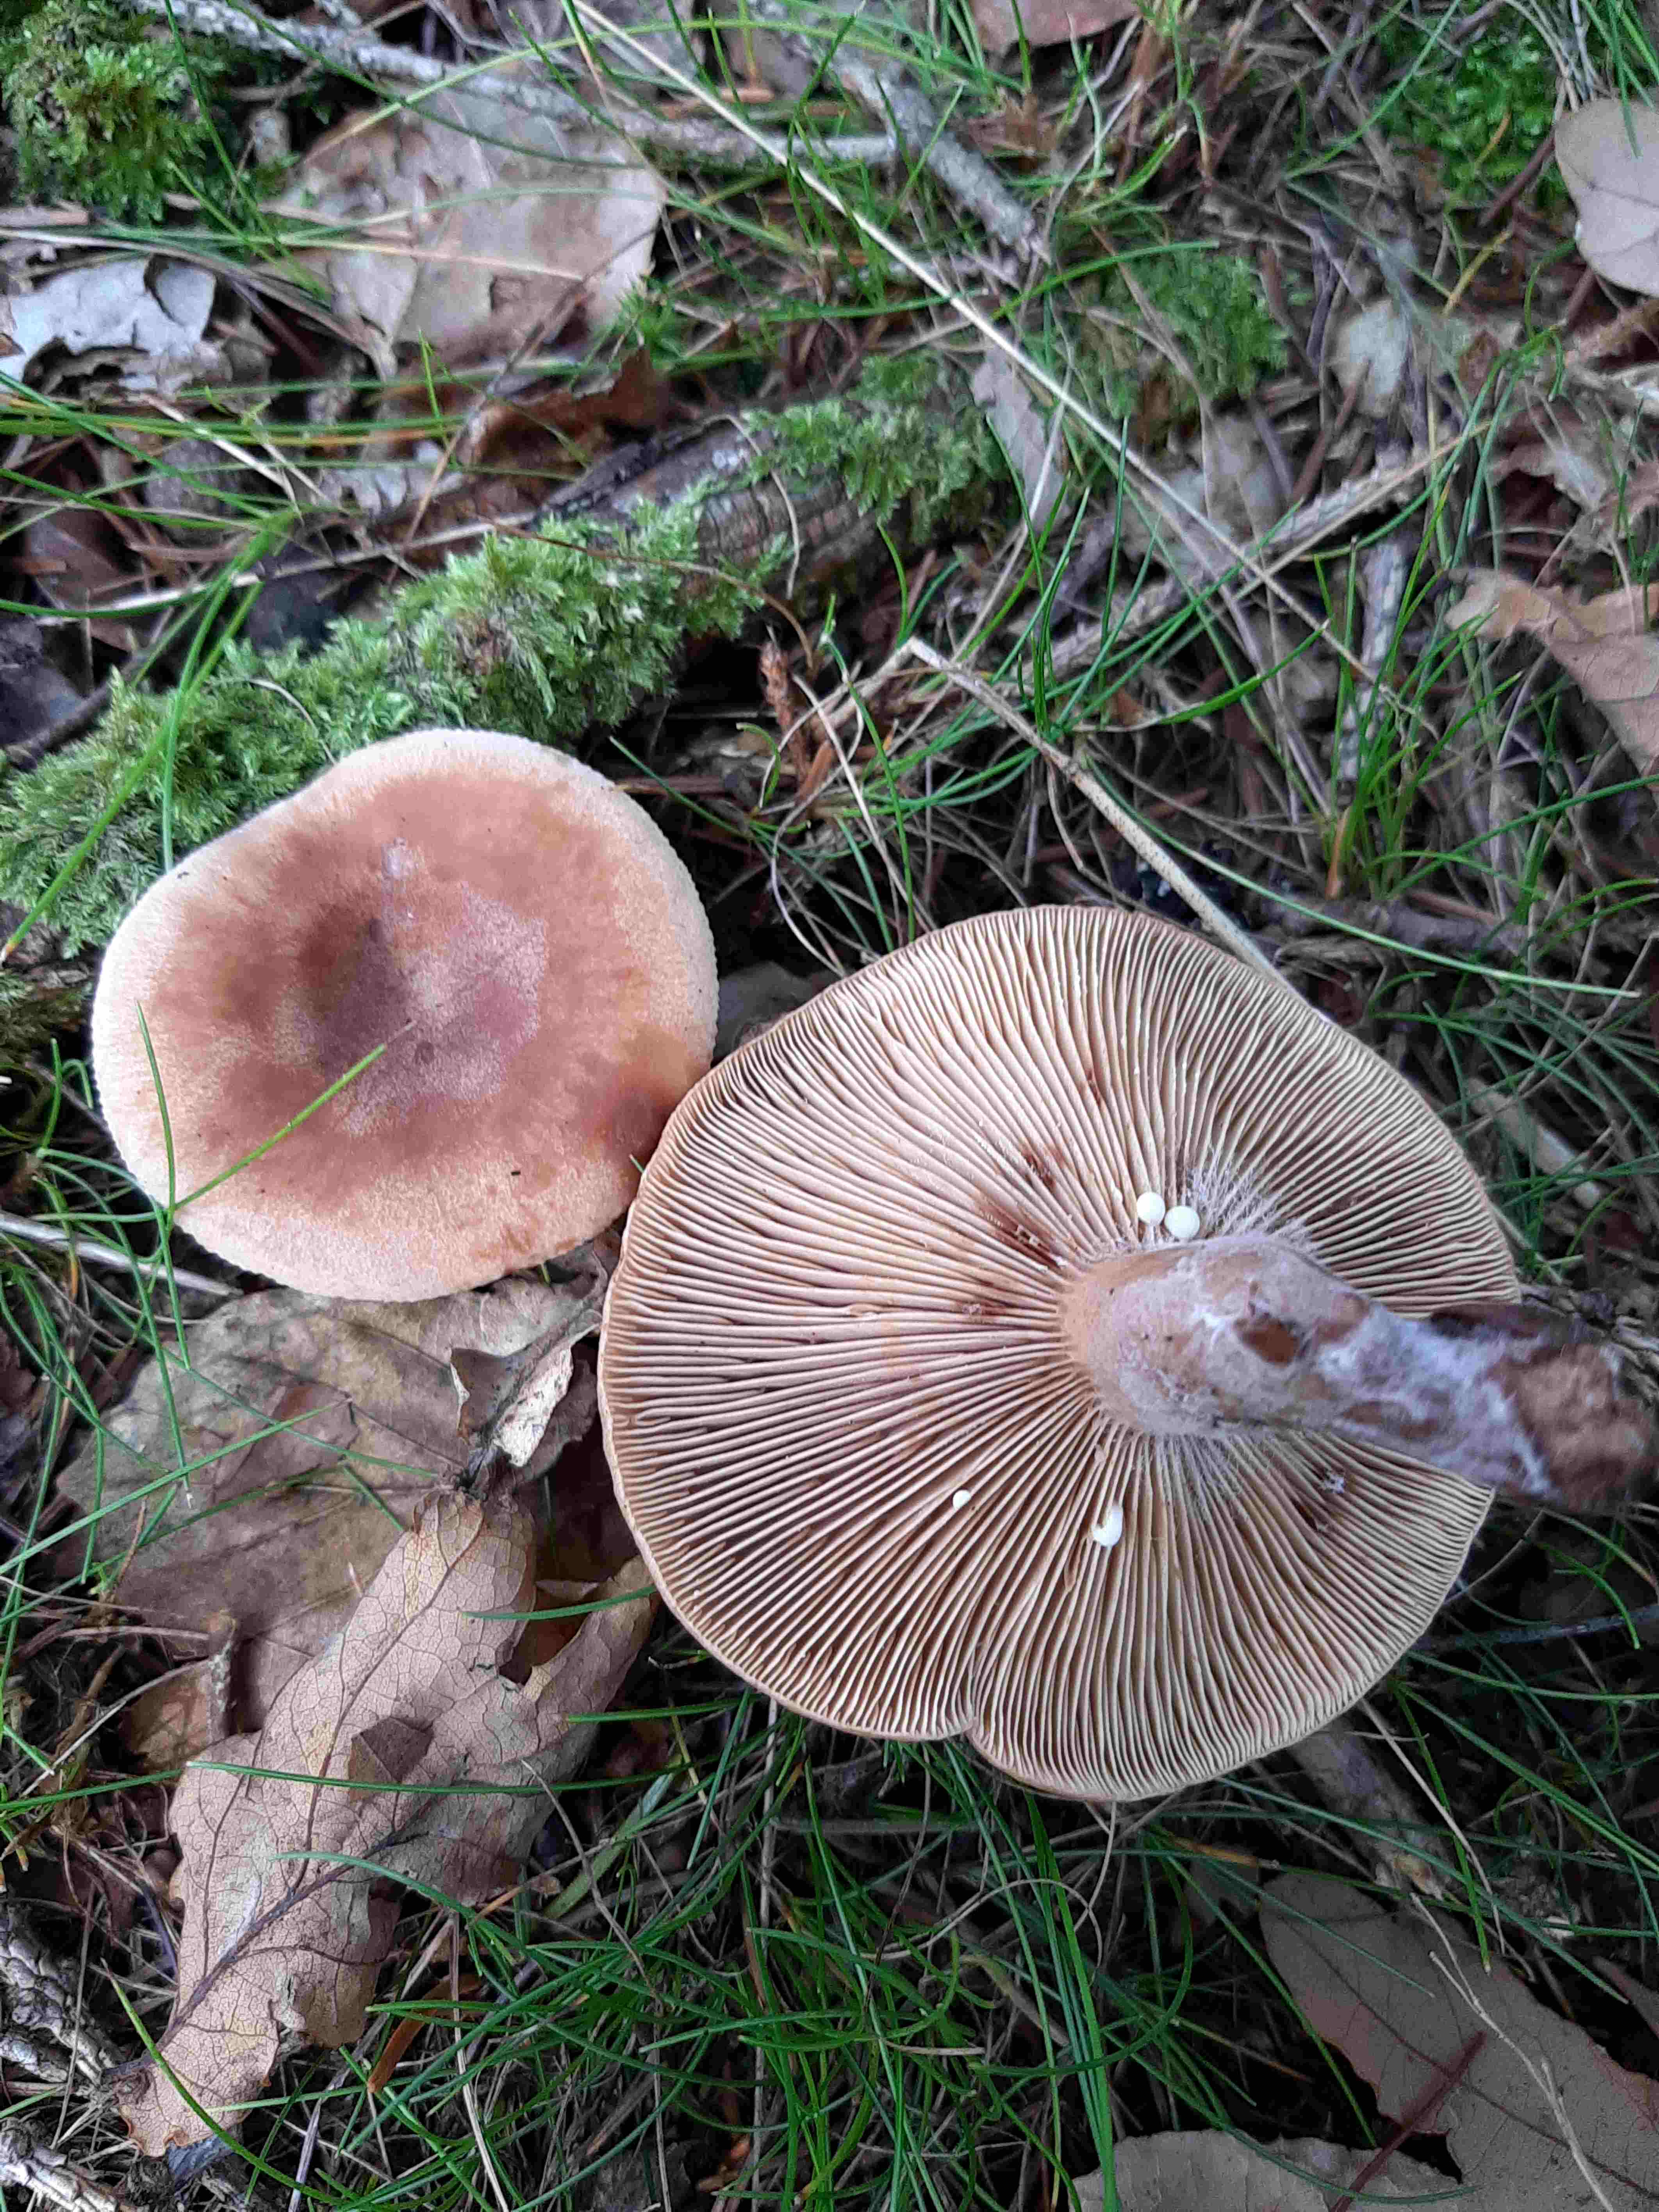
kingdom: Fungi
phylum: Basidiomycota
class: Agaricomycetes
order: Russulales
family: Russulaceae
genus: Lactarius
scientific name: Lactarius quietus
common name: ege-mælkehat
